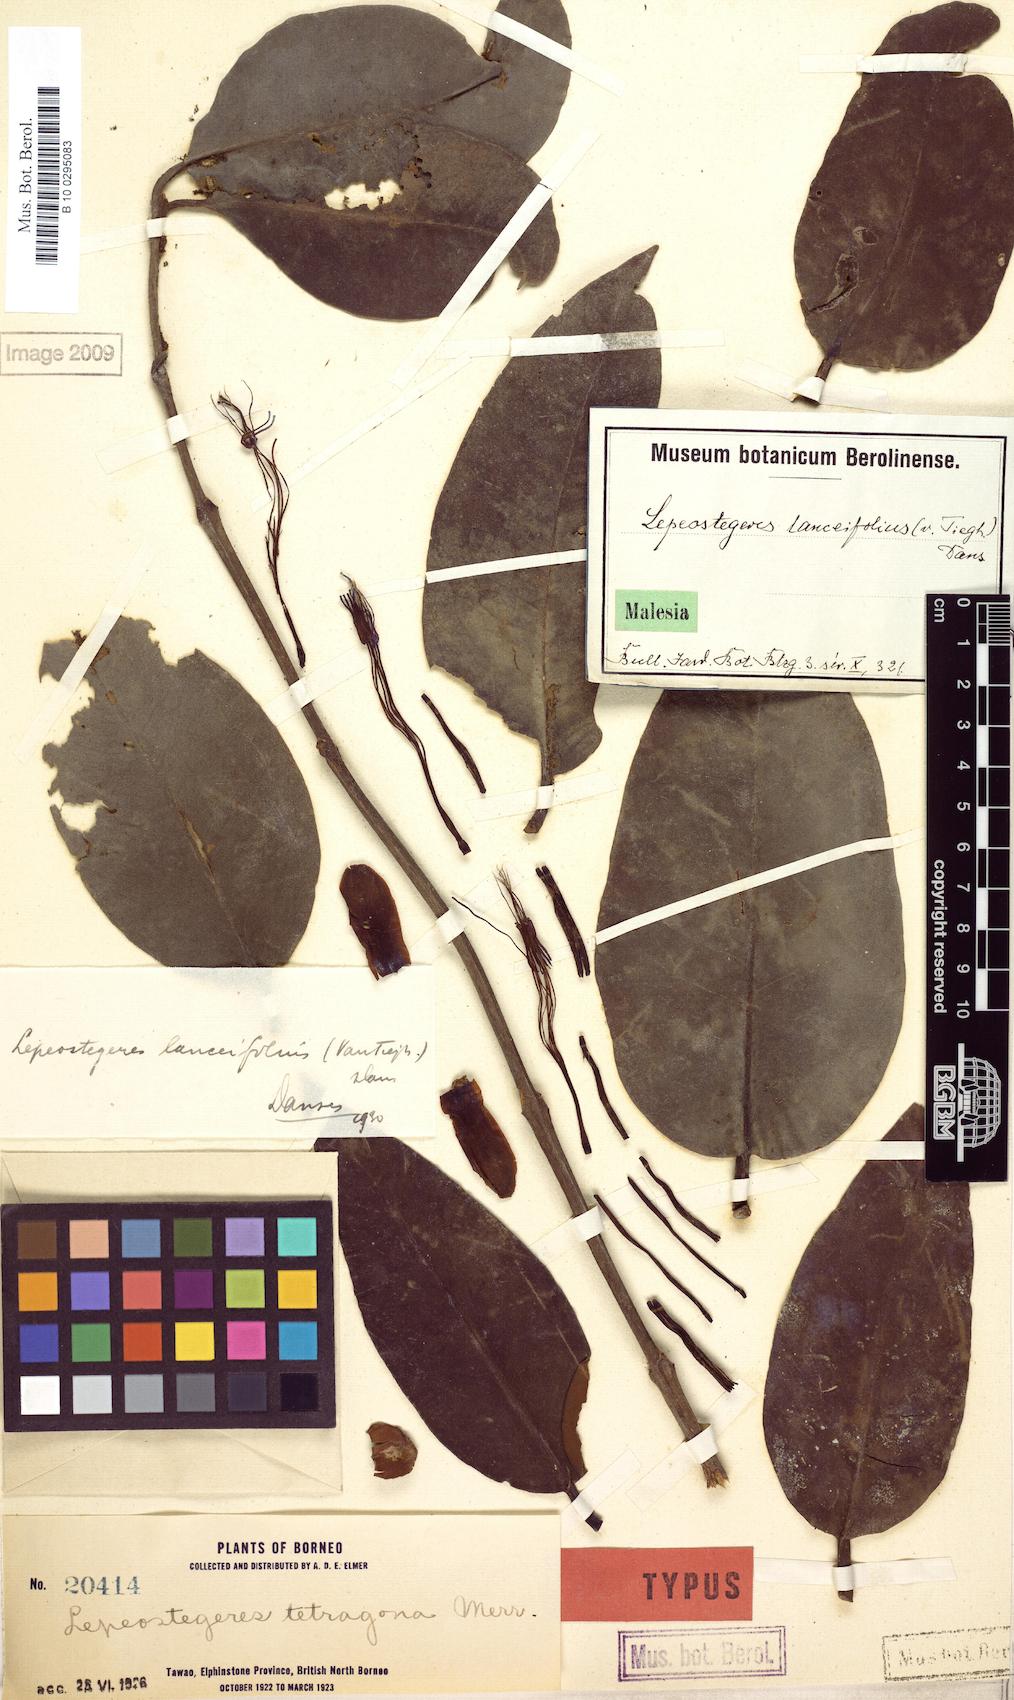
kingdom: Plantae
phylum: Tracheophyta
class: Magnoliopsida
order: Santalales
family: Loranthaceae
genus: Lepeostegeres
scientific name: Lepeostegeres lanceifolius
